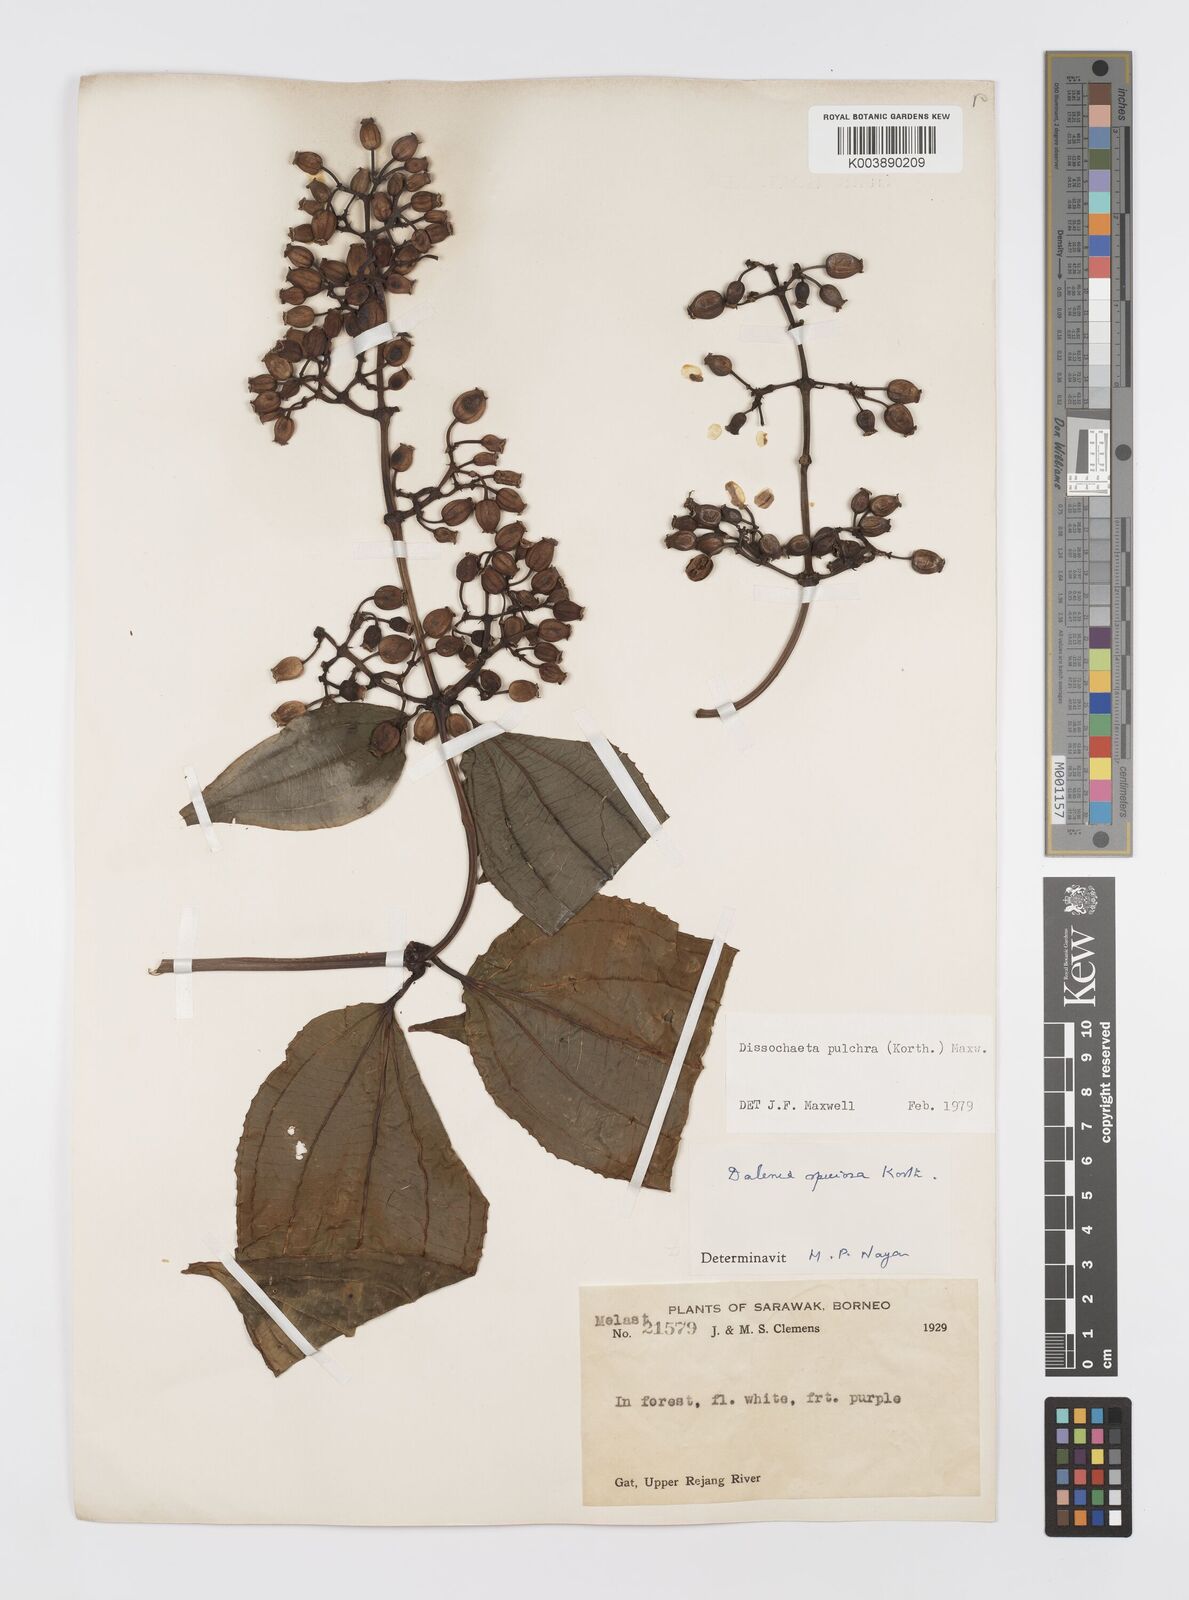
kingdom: Plantae
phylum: Tracheophyta
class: Magnoliopsida
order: Myrtales
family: Melastomataceae
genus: Dalenia
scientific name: Dalenia pulchra
